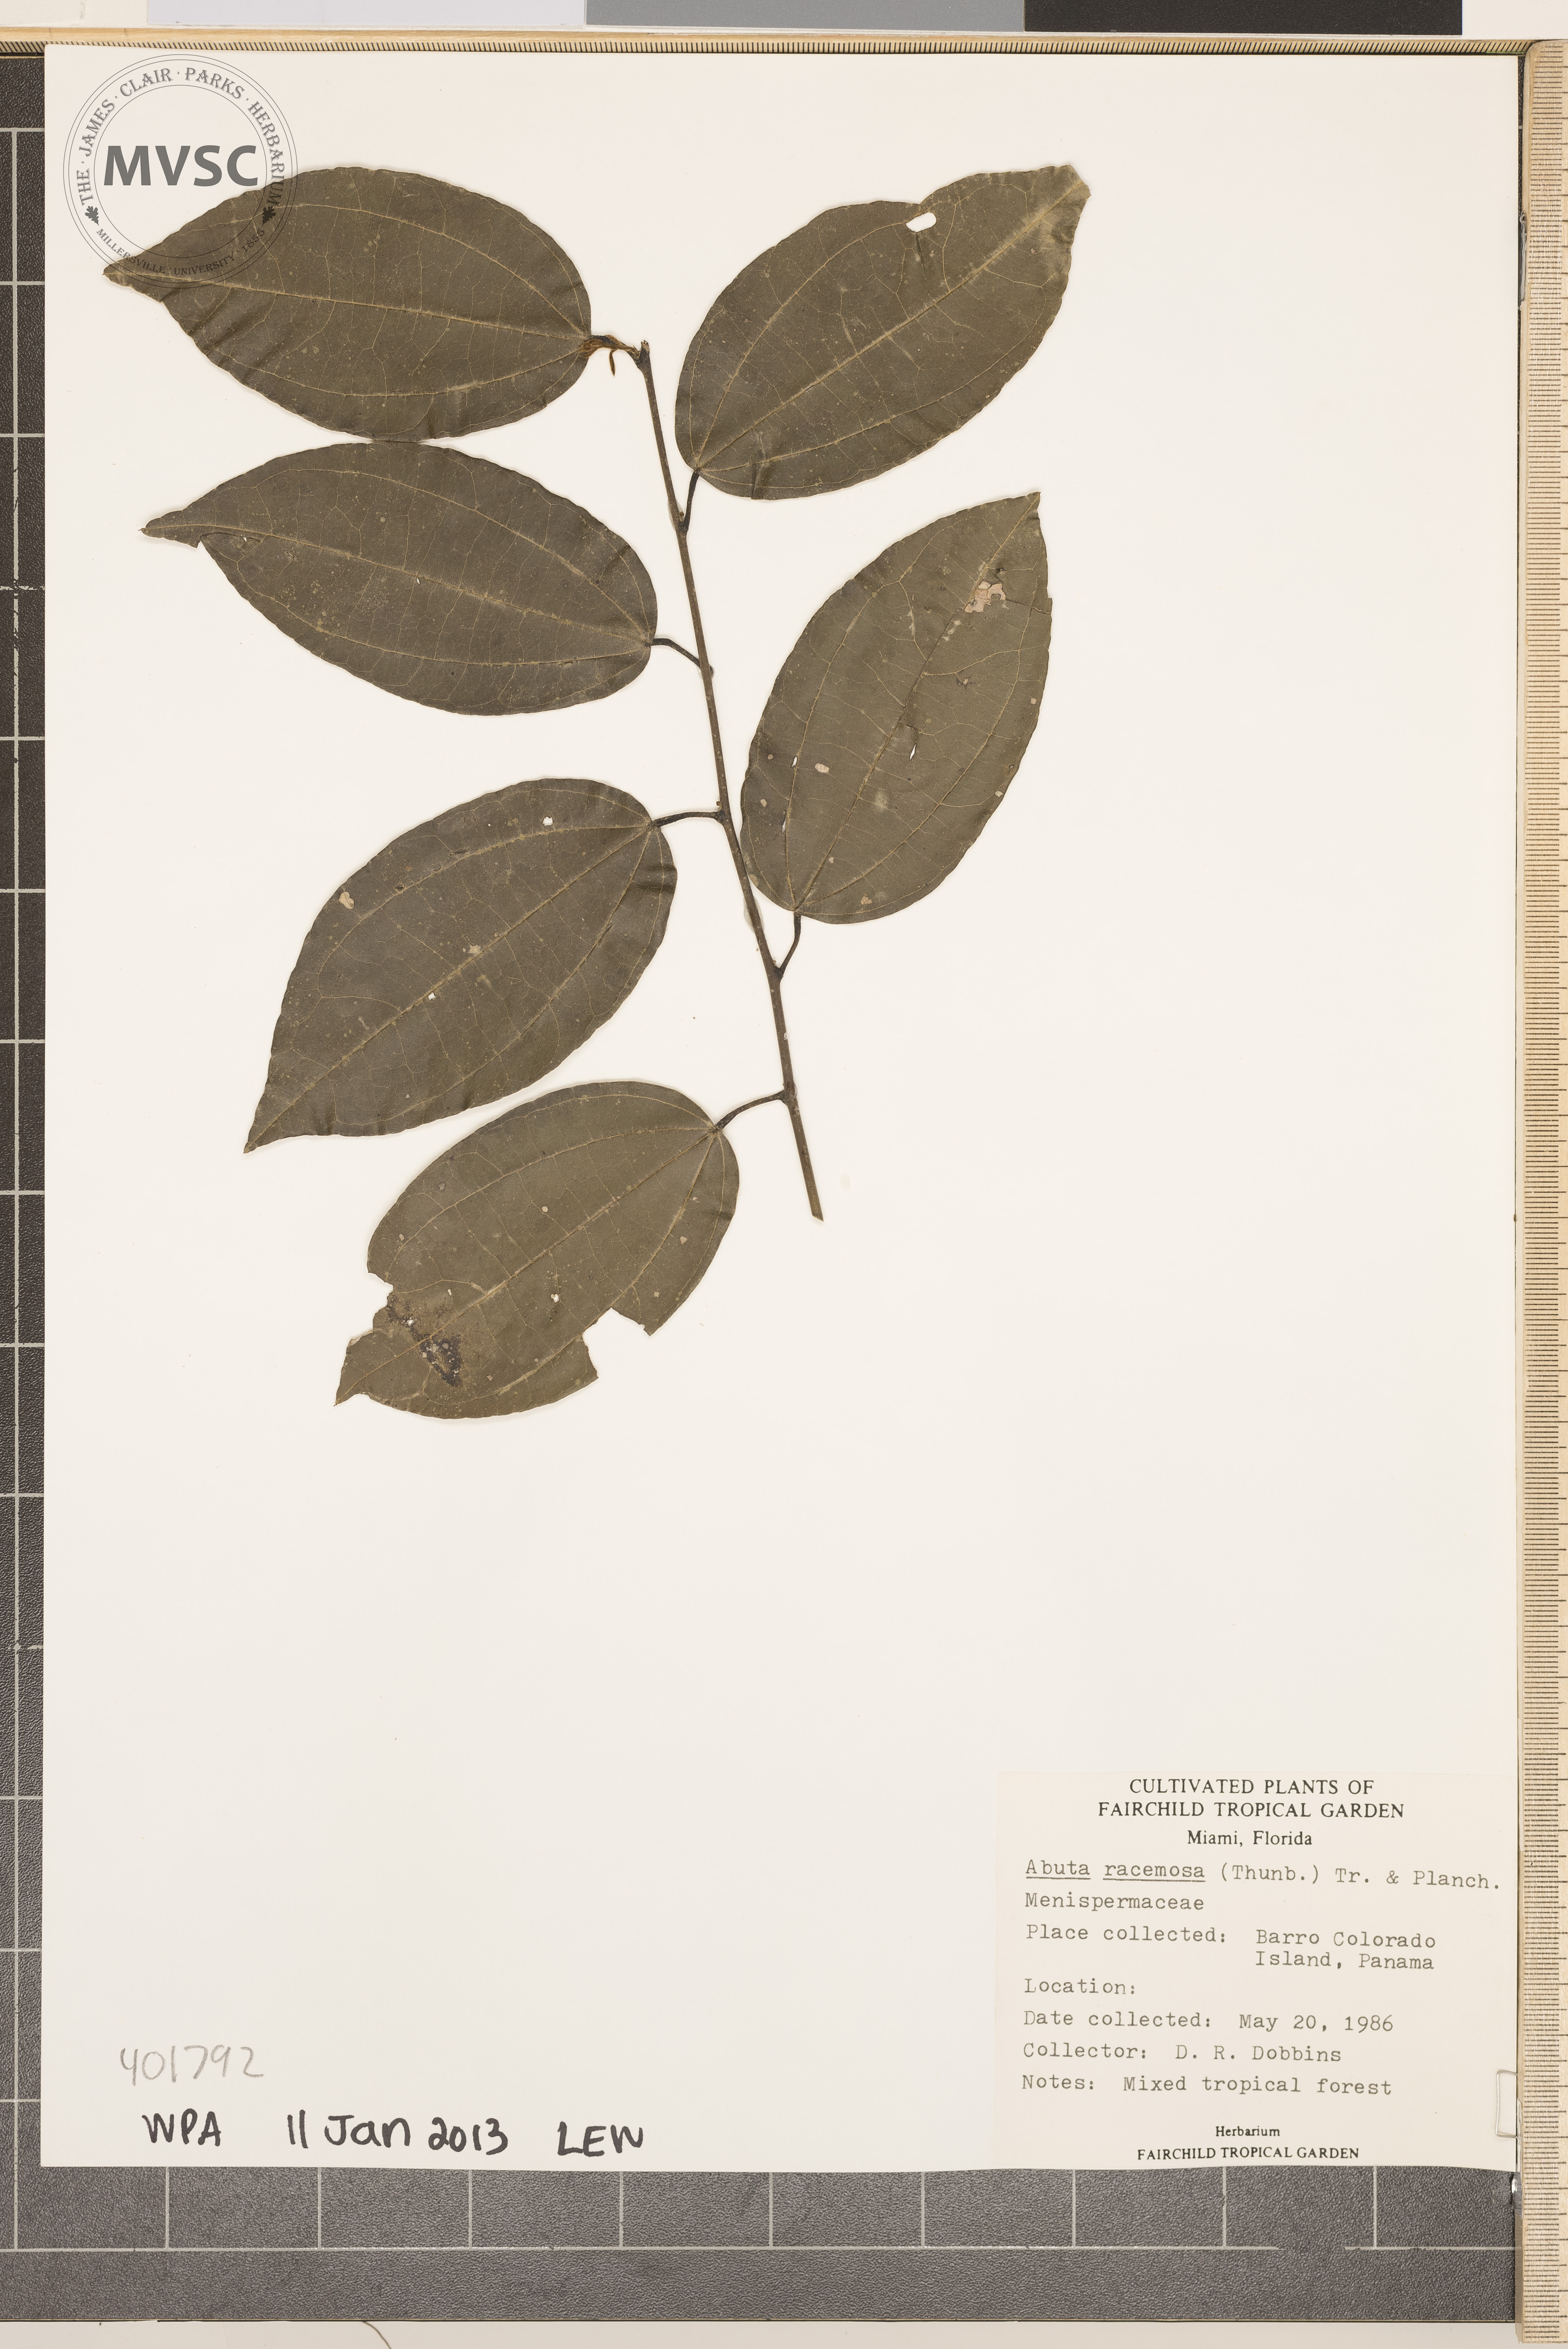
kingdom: Plantae
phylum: Tracheophyta
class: Magnoliopsida
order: Ranunculales
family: Menispermaceae
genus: Abuta
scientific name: Abuta racemosa
